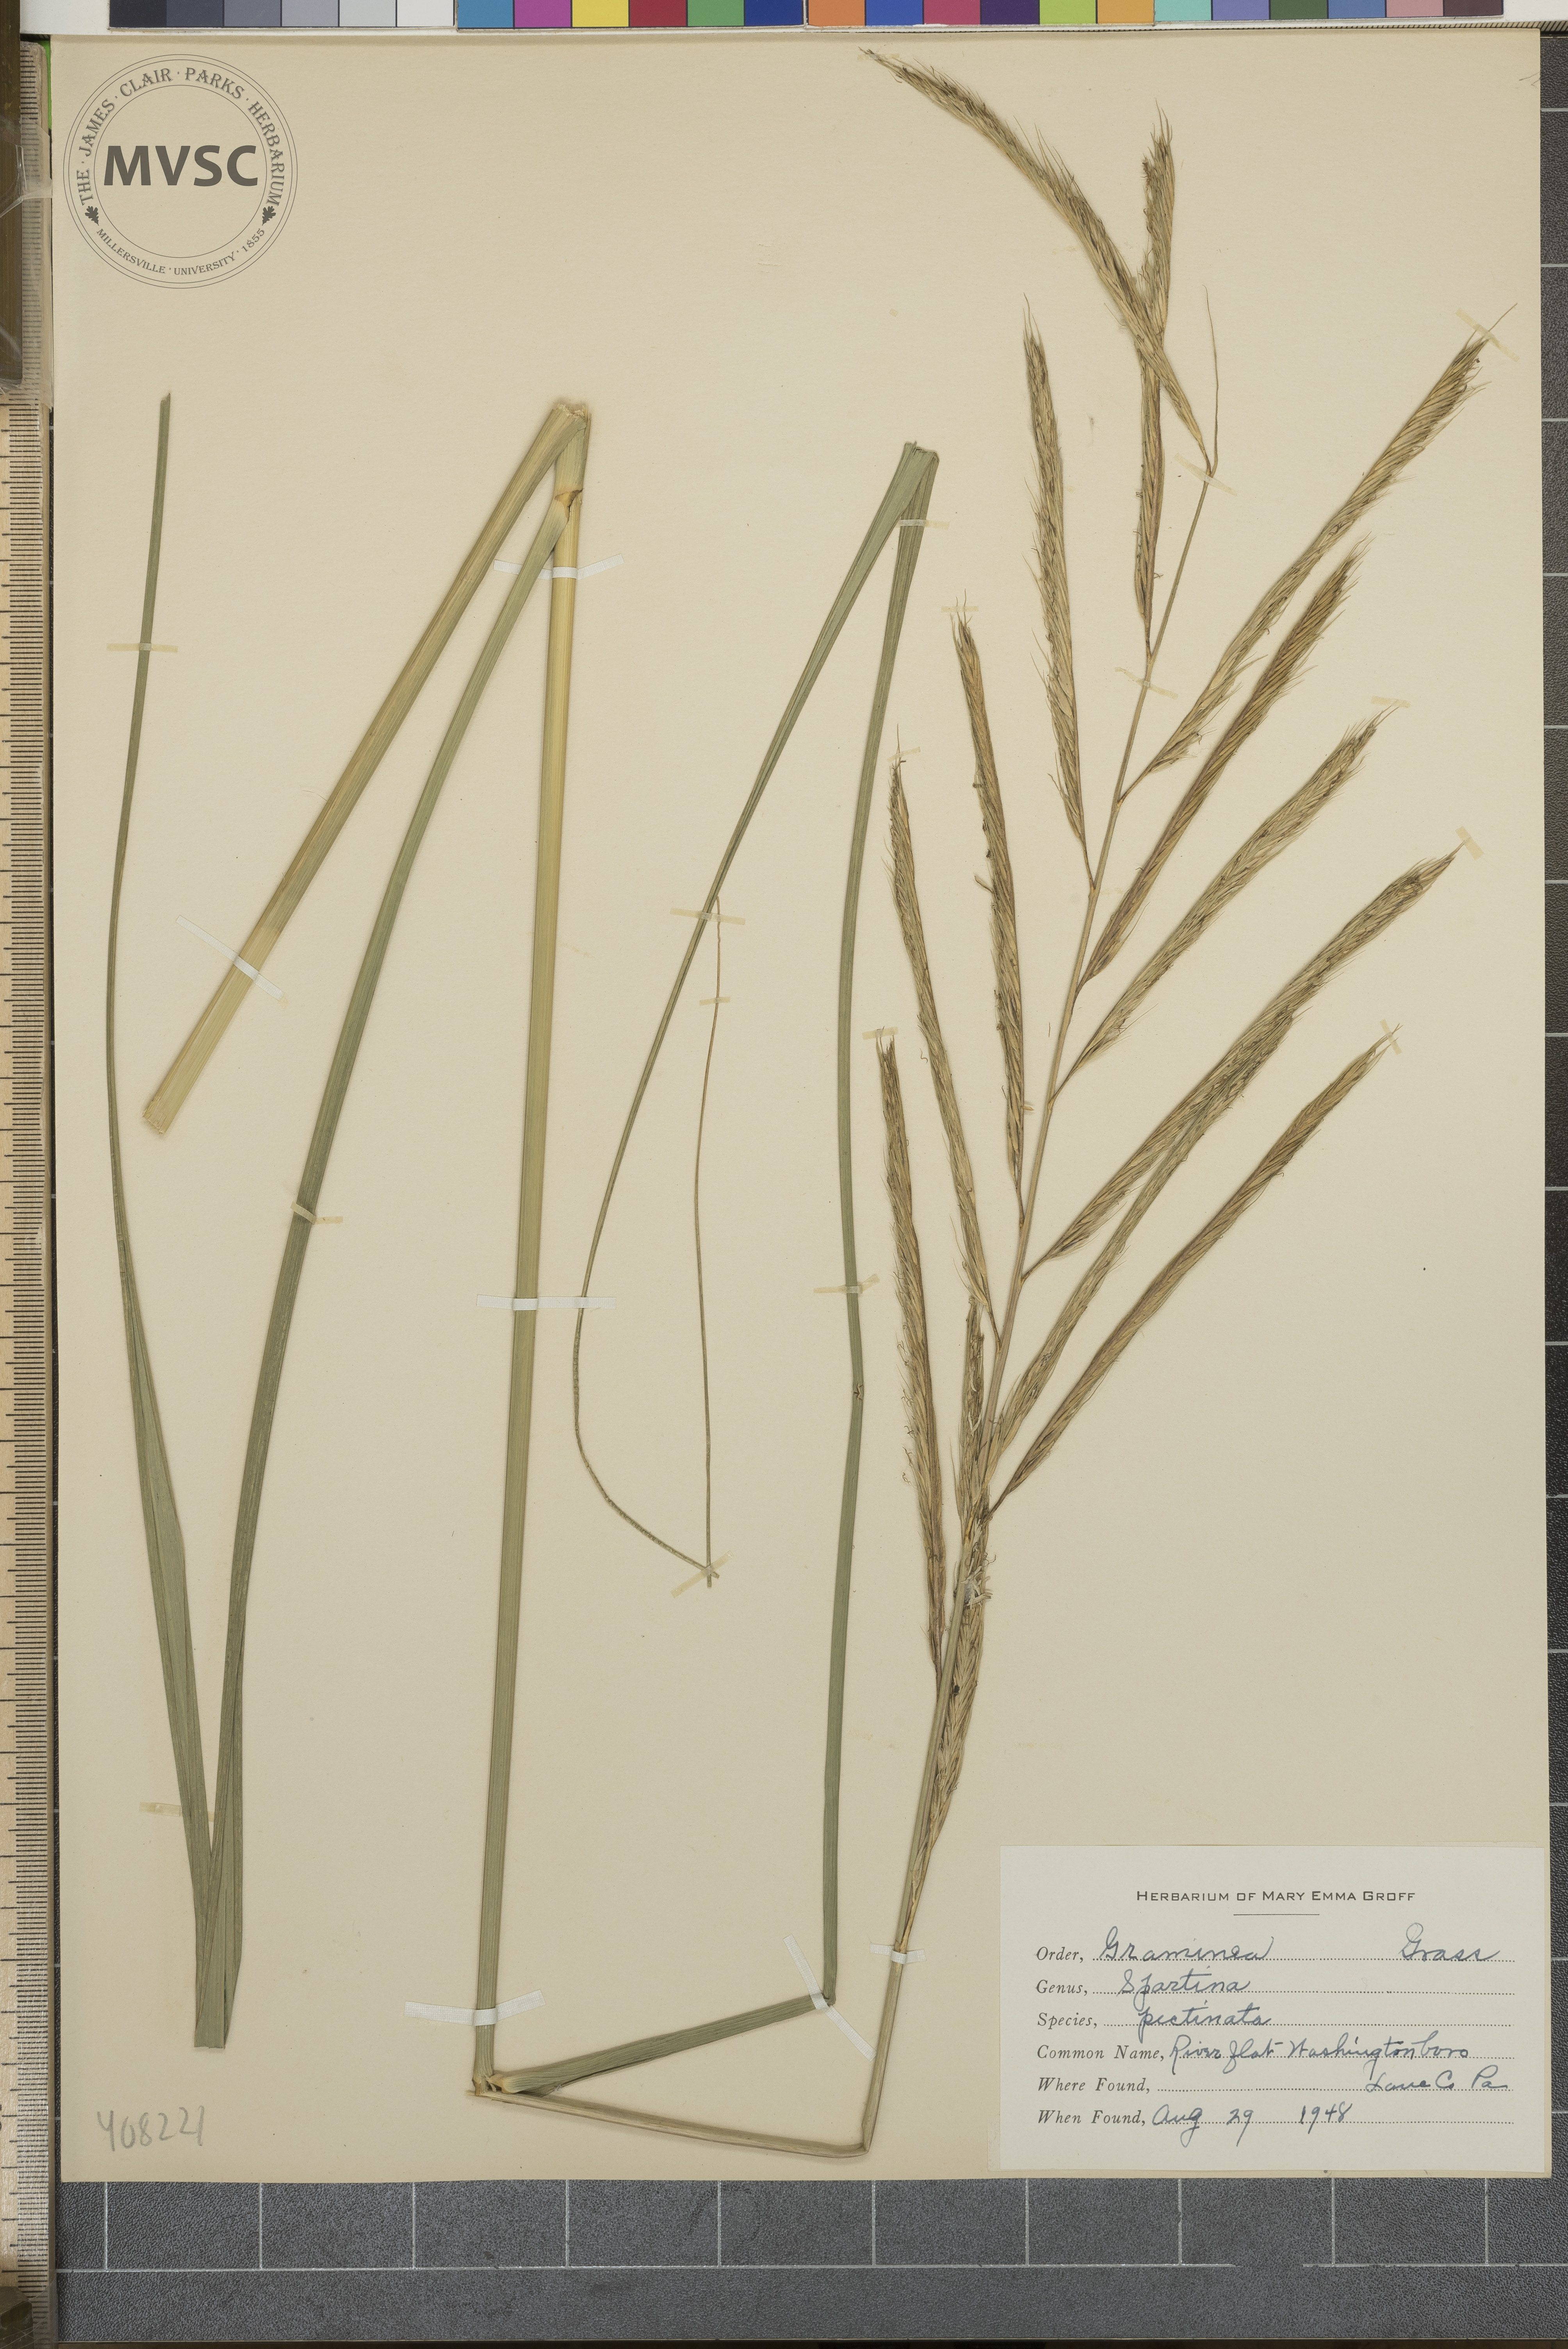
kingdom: Plantae
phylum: Tracheophyta
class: Liliopsida
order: Poales
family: Poaceae
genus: Sporobolus
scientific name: Sporobolus michauxianus
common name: Freshwater cordgrass
